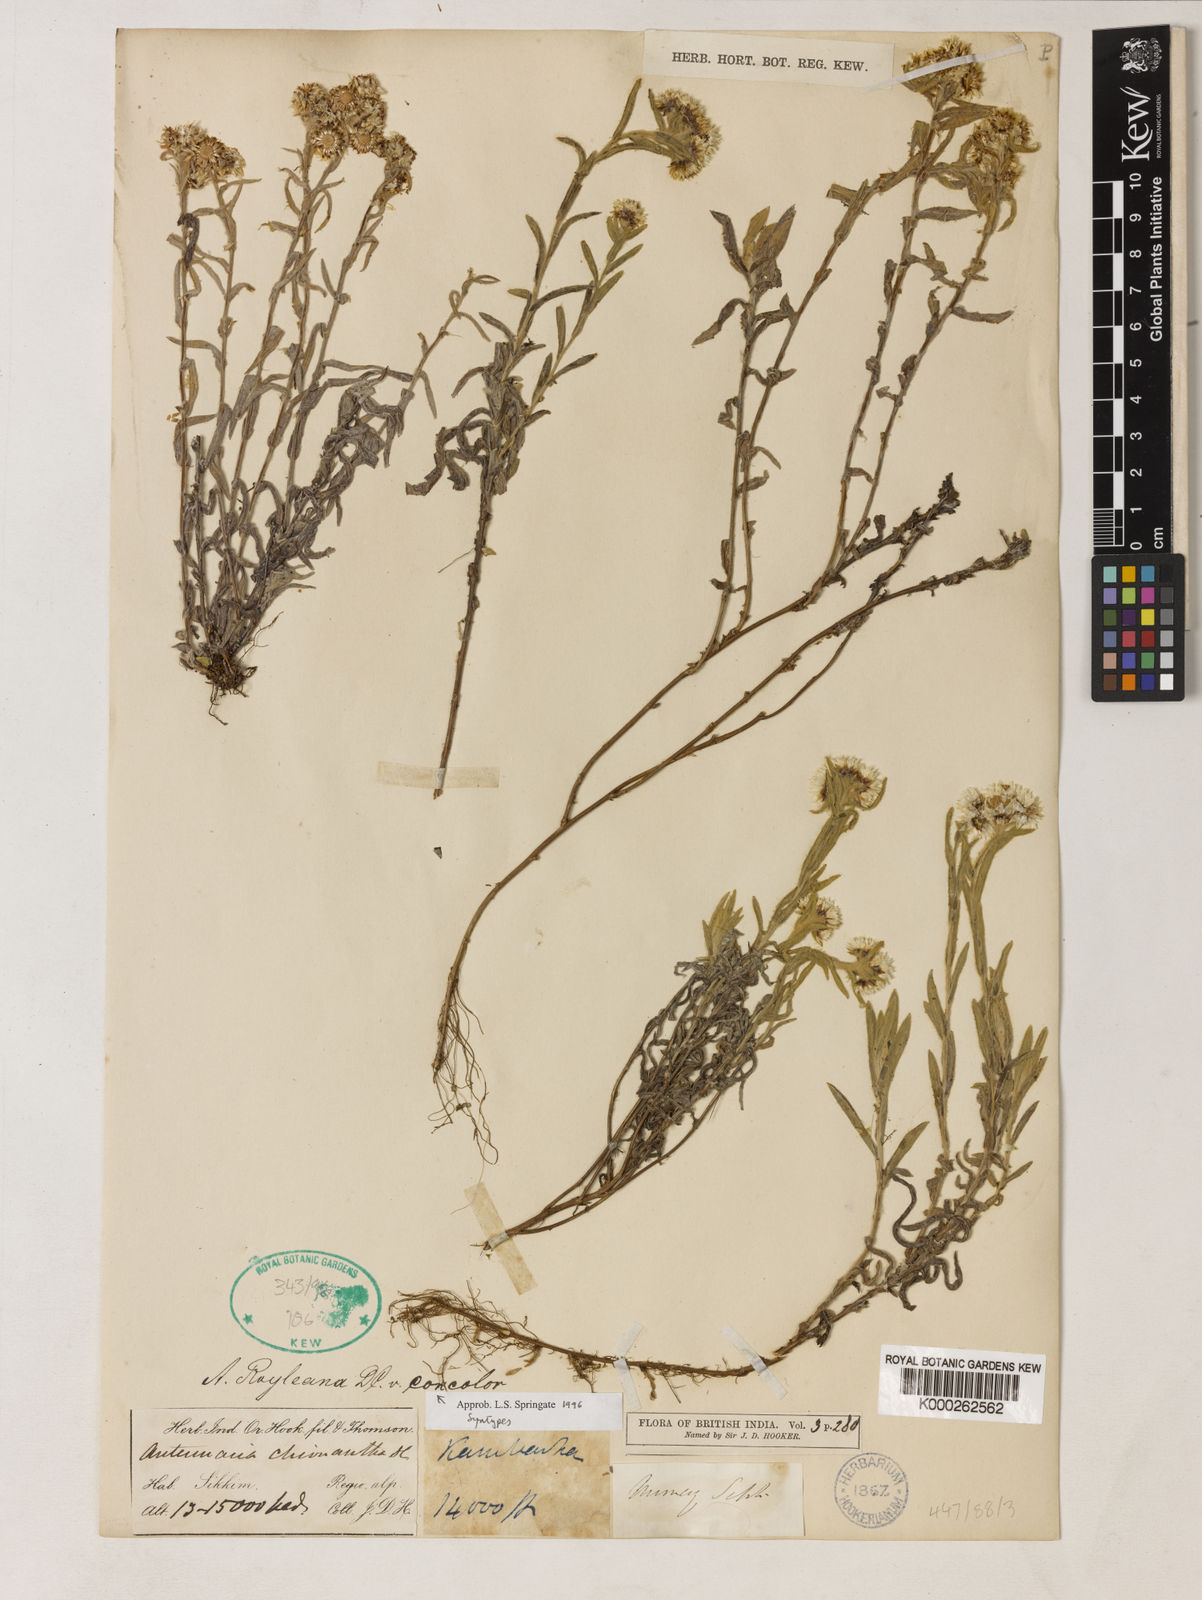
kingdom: Plantae
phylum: Tracheophyta
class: Magnoliopsida
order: Asterales
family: Asteraceae
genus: Anaphalis
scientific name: Anaphalis royleana
